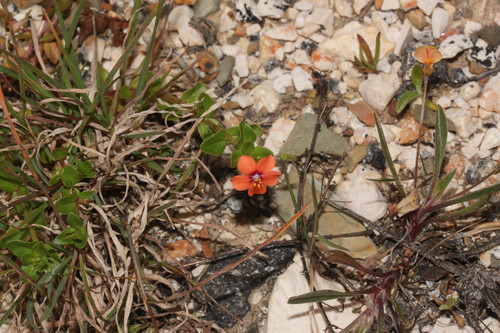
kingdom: Plantae
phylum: Tracheophyta
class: Magnoliopsida
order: Ericales
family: Primulaceae
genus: Lysimachia
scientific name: Lysimachia arvensis
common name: Scarlet pimpernel
